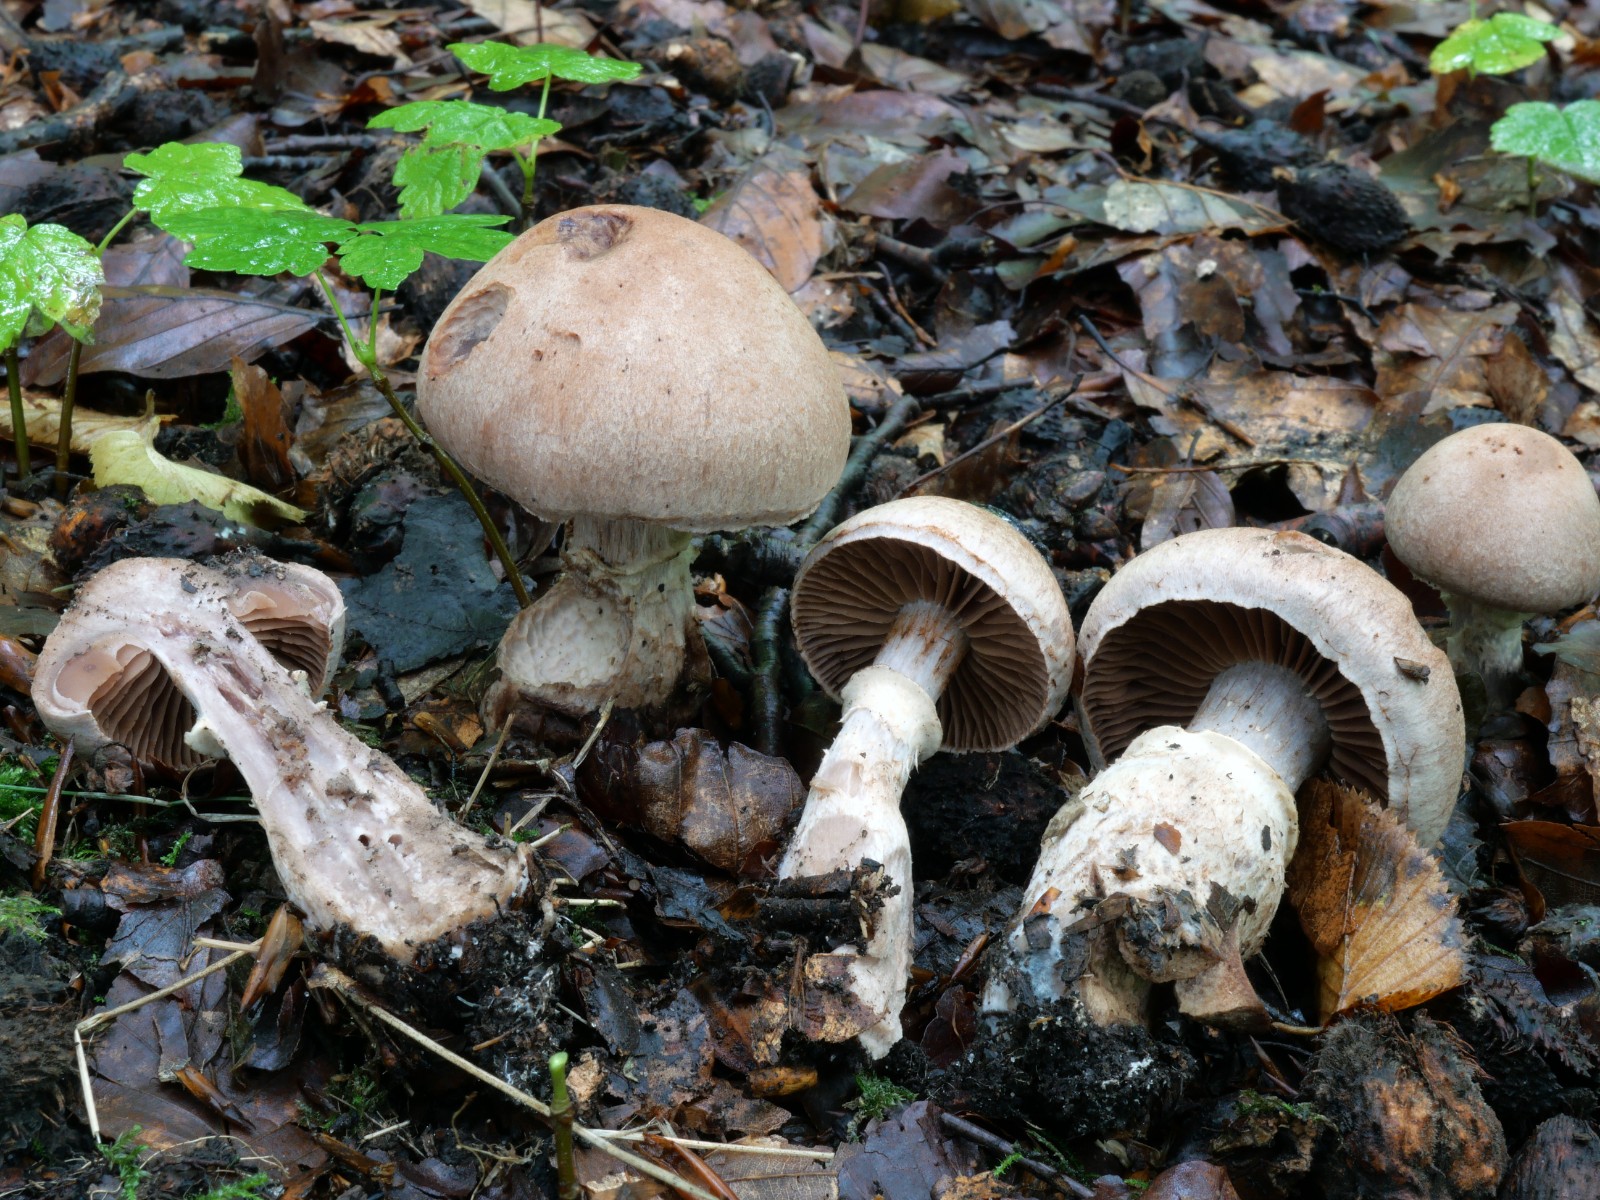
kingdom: Fungi
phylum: Basidiomycota
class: Agaricomycetes
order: Agaricales
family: Cortinariaceae
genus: Cortinarius
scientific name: Cortinarius torvus
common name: champignonagtig slørhat
